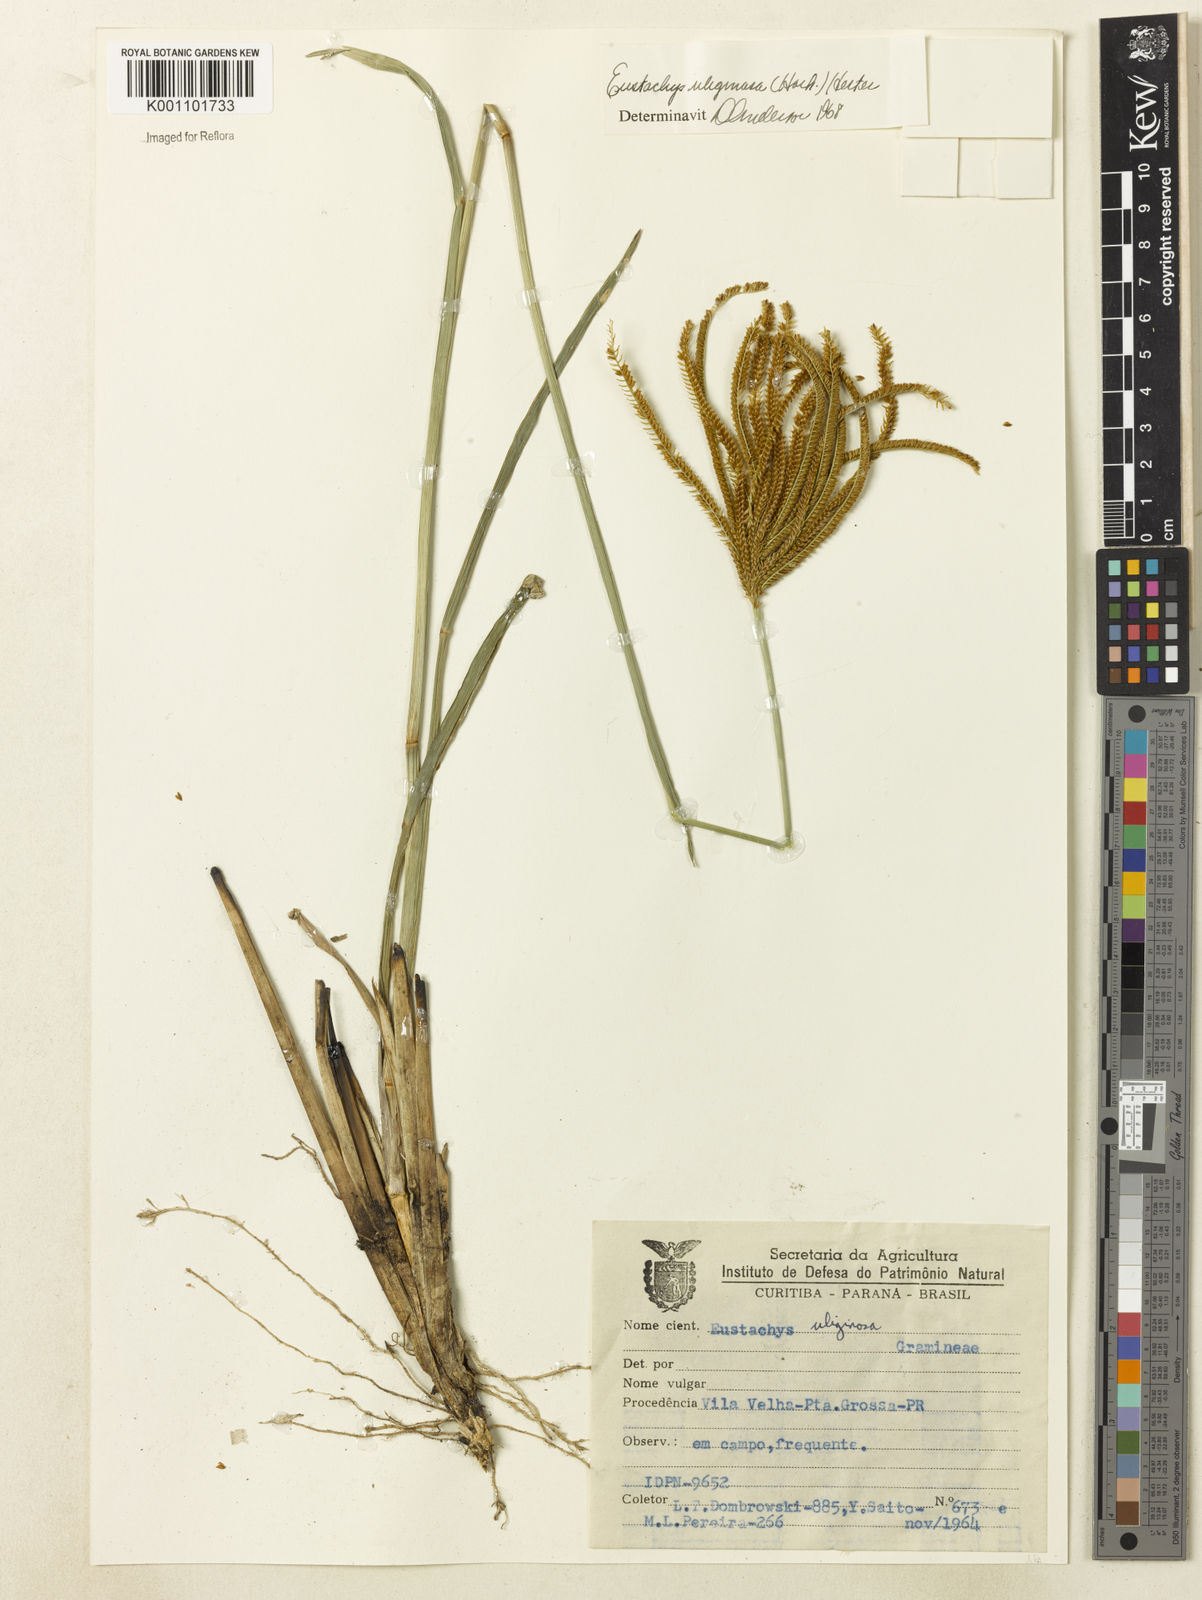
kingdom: Plantae
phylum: Tracheophyta
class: Liliopsida
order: Poales
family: Poaceae
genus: Eustachys
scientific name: Eustachys bahiensis
